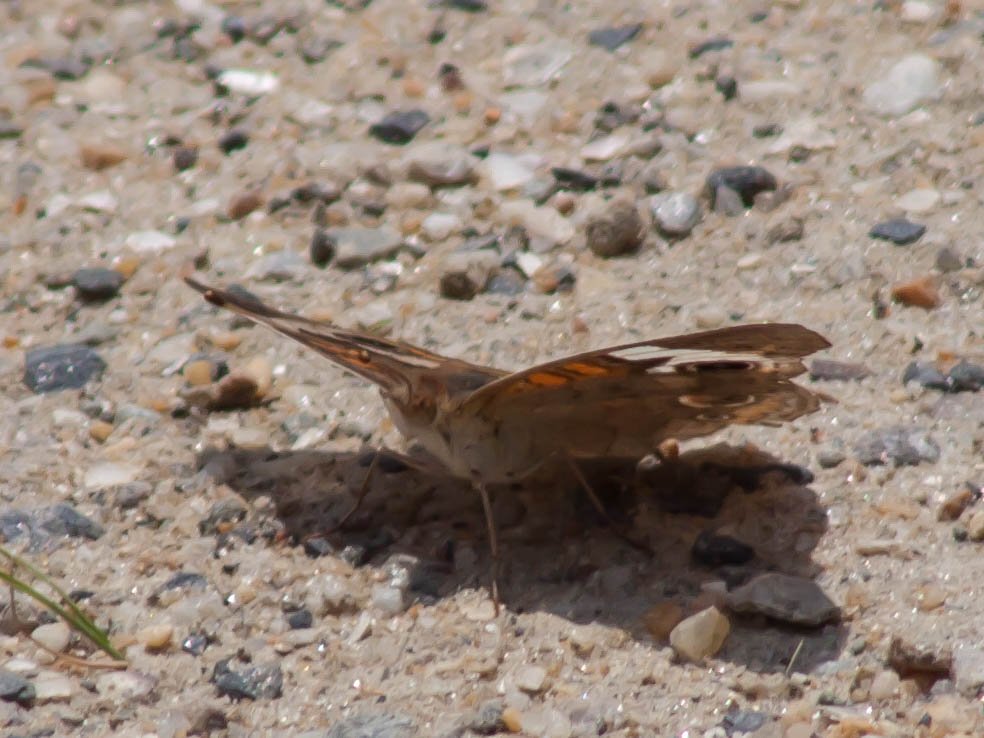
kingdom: Animalia
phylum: Arthropoda
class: Insecta
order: Lepidoptera
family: Nymphalidae
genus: Junonia
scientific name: Junonia coenia
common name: Common Buckeye
